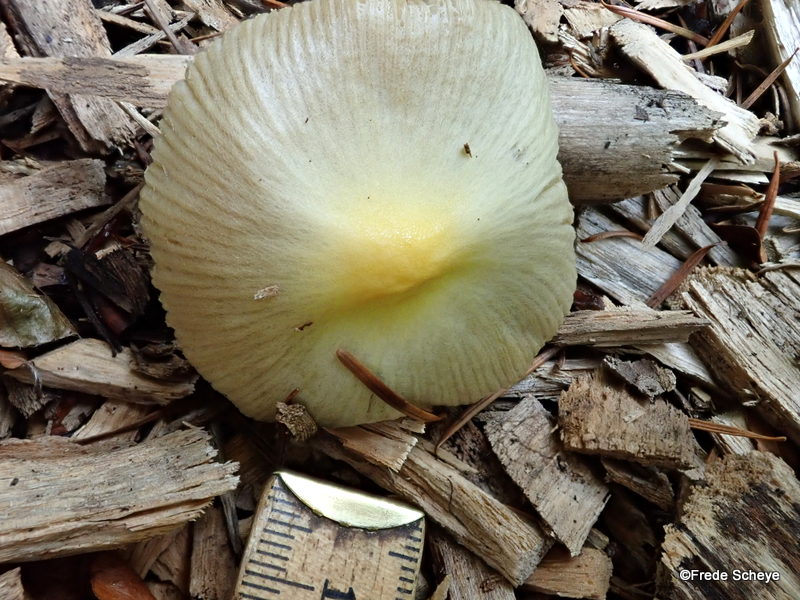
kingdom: Fungi
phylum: Basidiomycota
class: Agaricomycetes
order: Agaricales
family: Bolbitiaceae
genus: Bolbitius
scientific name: Bolbitius titubans
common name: almindelig gulhat
